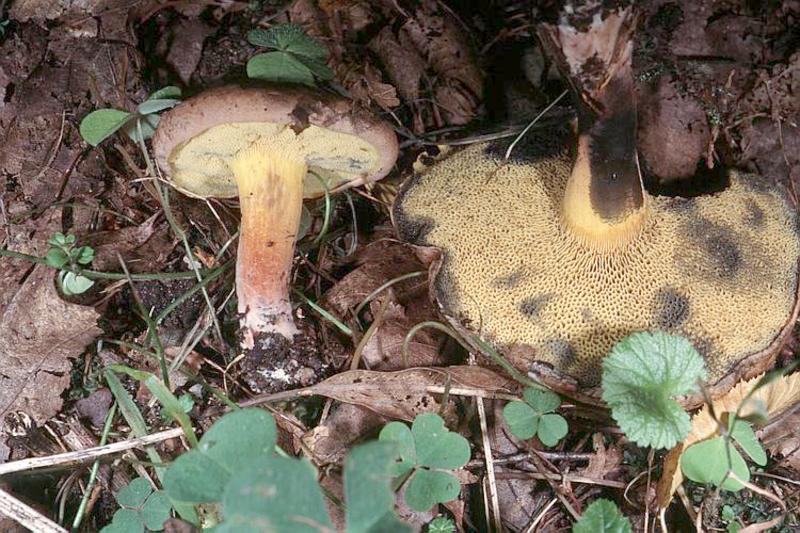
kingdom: Fungi
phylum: Basidiomycota
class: Agaricomycetes
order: Boletales
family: Boletaceae
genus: Cyanoboletus
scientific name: Cyanoboletus pulverulentus
